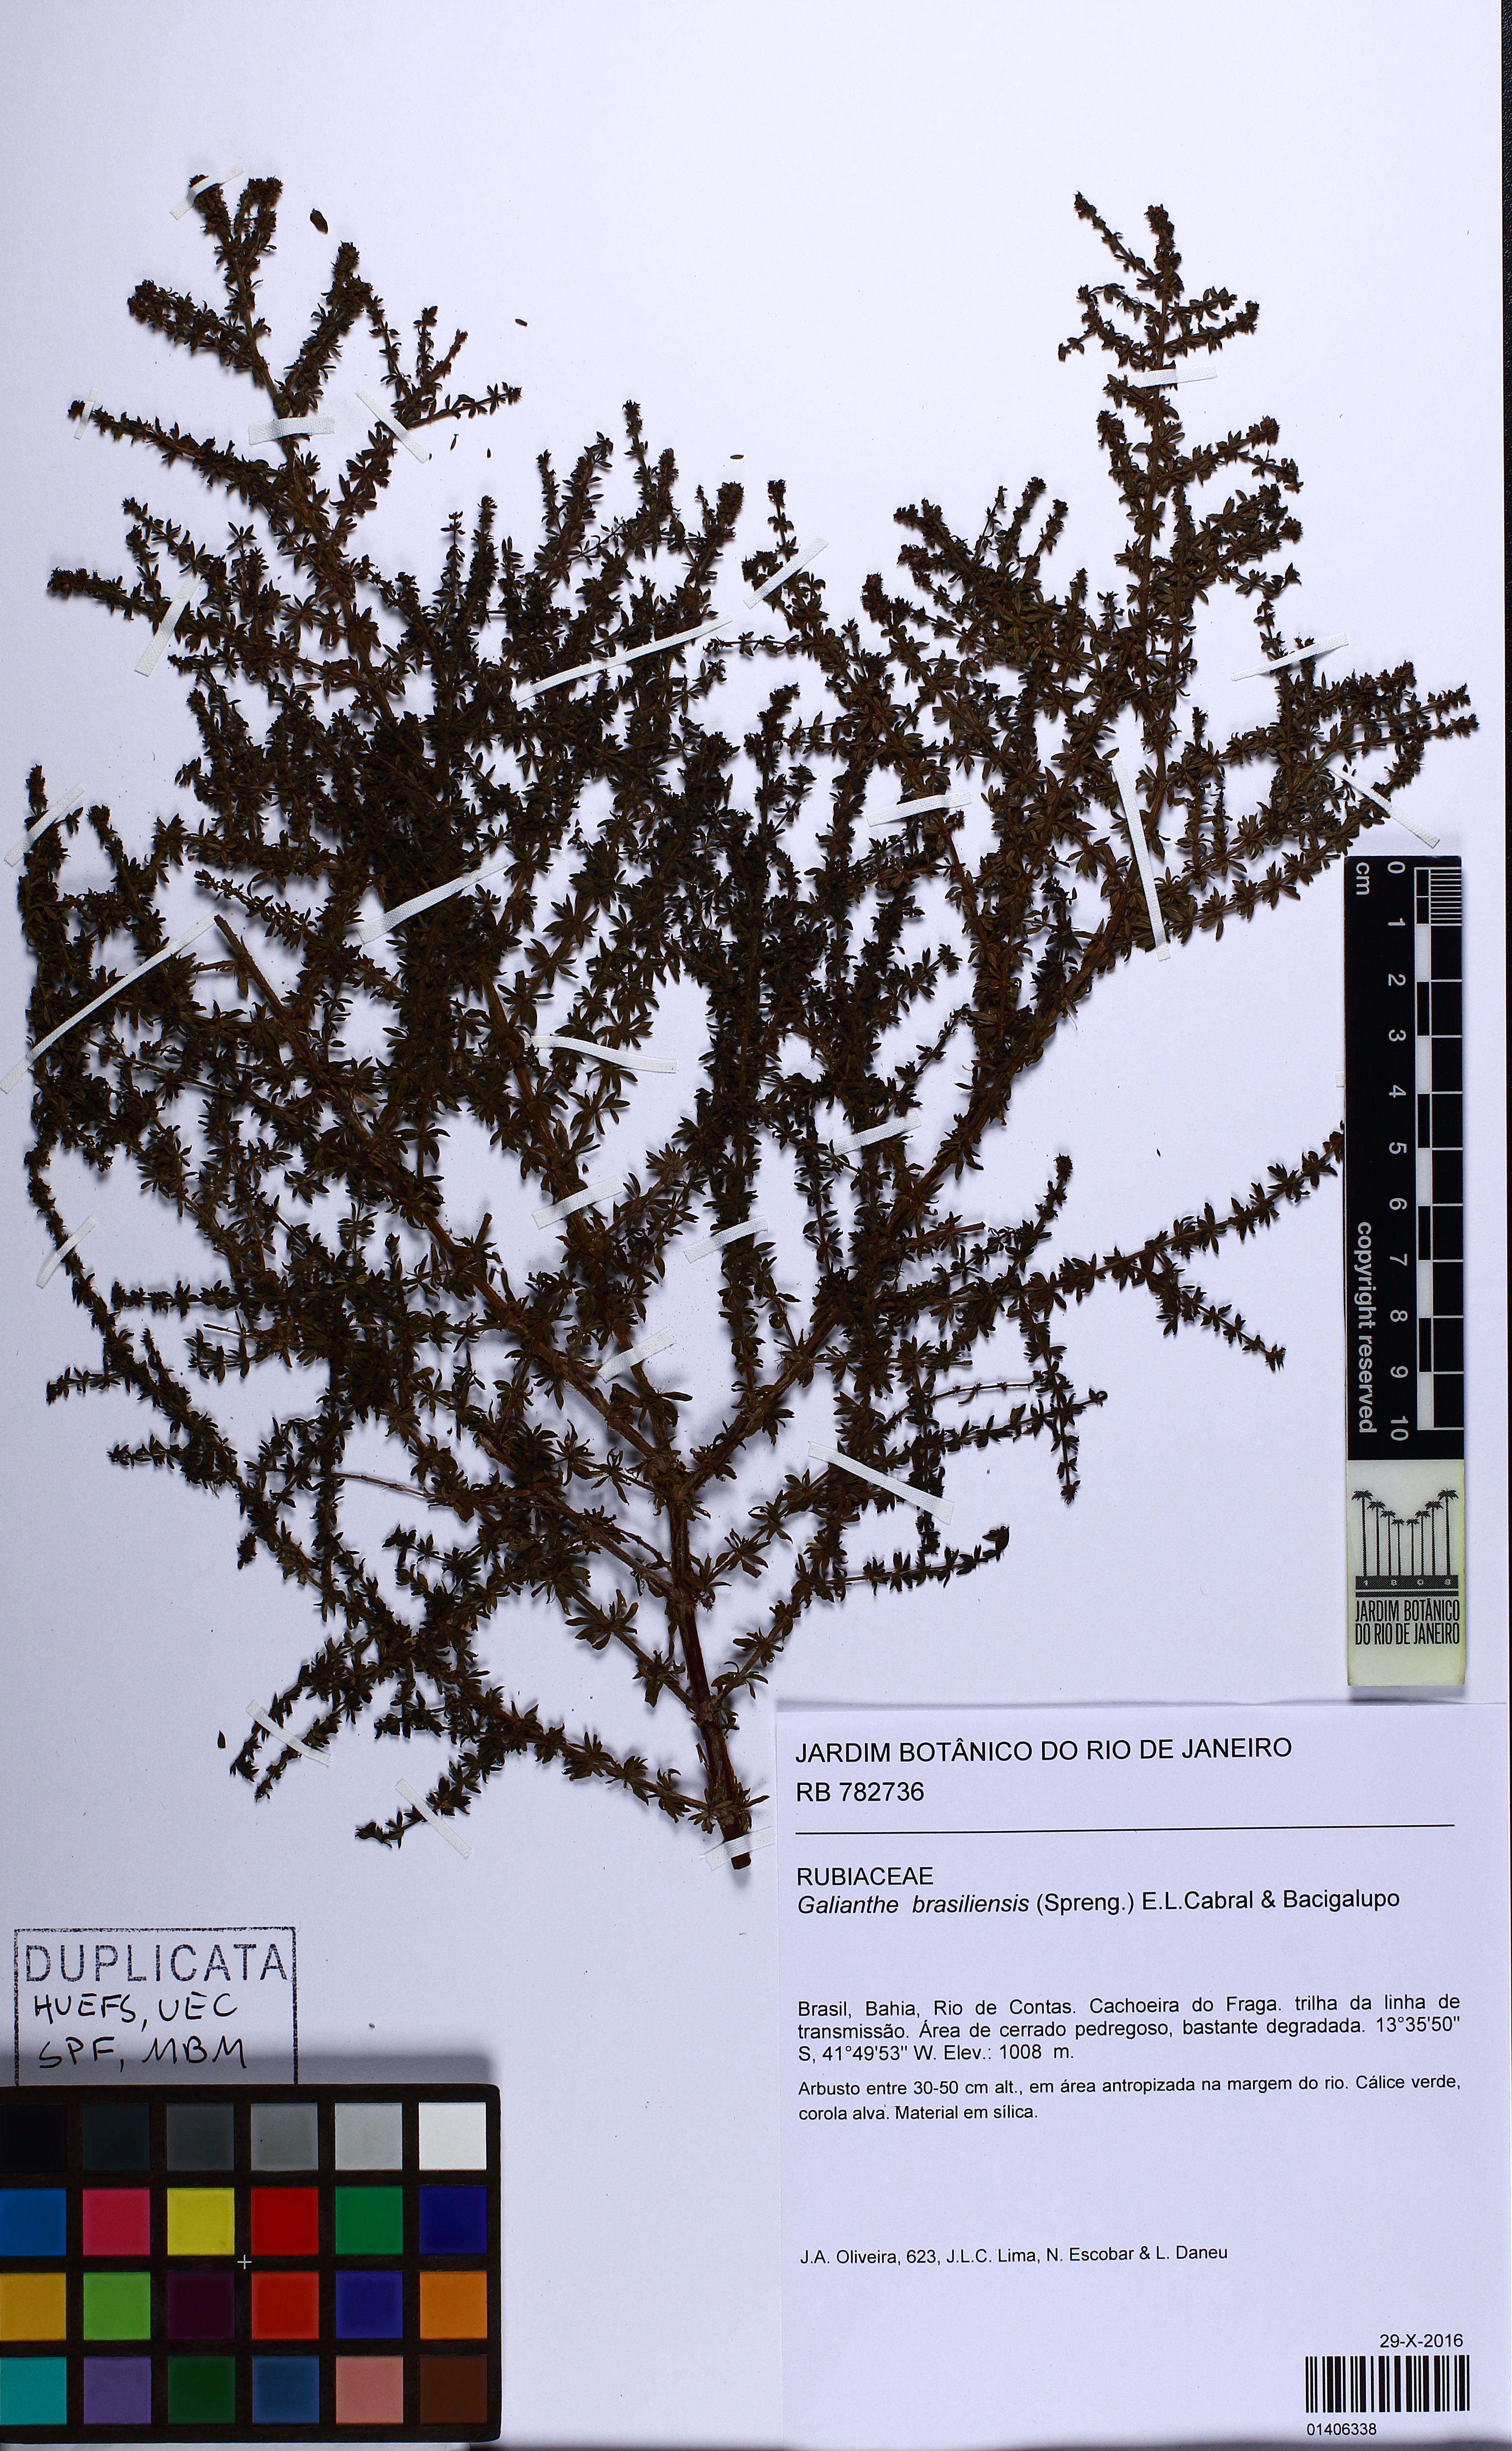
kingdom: Plantae
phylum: Tracheophyta
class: Magnoliopsida
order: Gentianales
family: Rubiaceae
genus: Galianthe
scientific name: Galianthe brasiliensis
